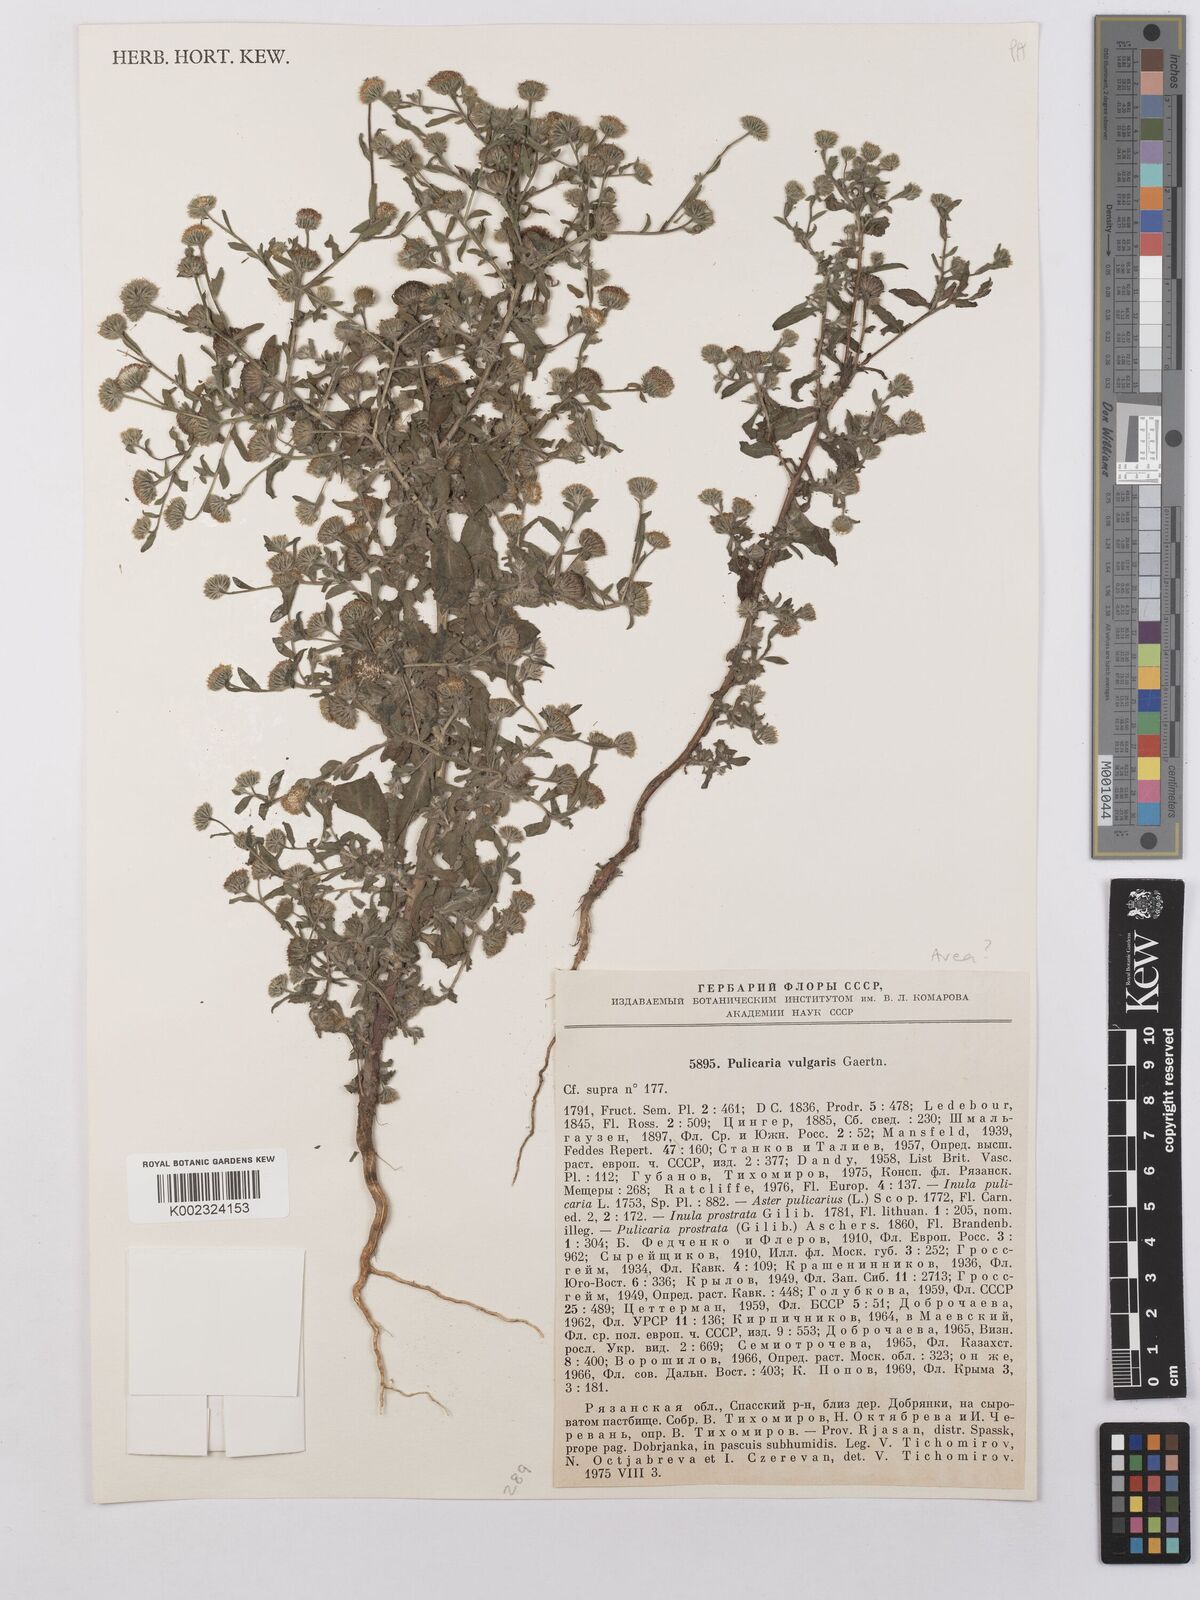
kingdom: Plantae
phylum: Tracheophyta
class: Magnoliopsida
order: Asterales
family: Asteraceae
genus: Pulicaria
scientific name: Pulicaria vulgaris
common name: Small fleabane
